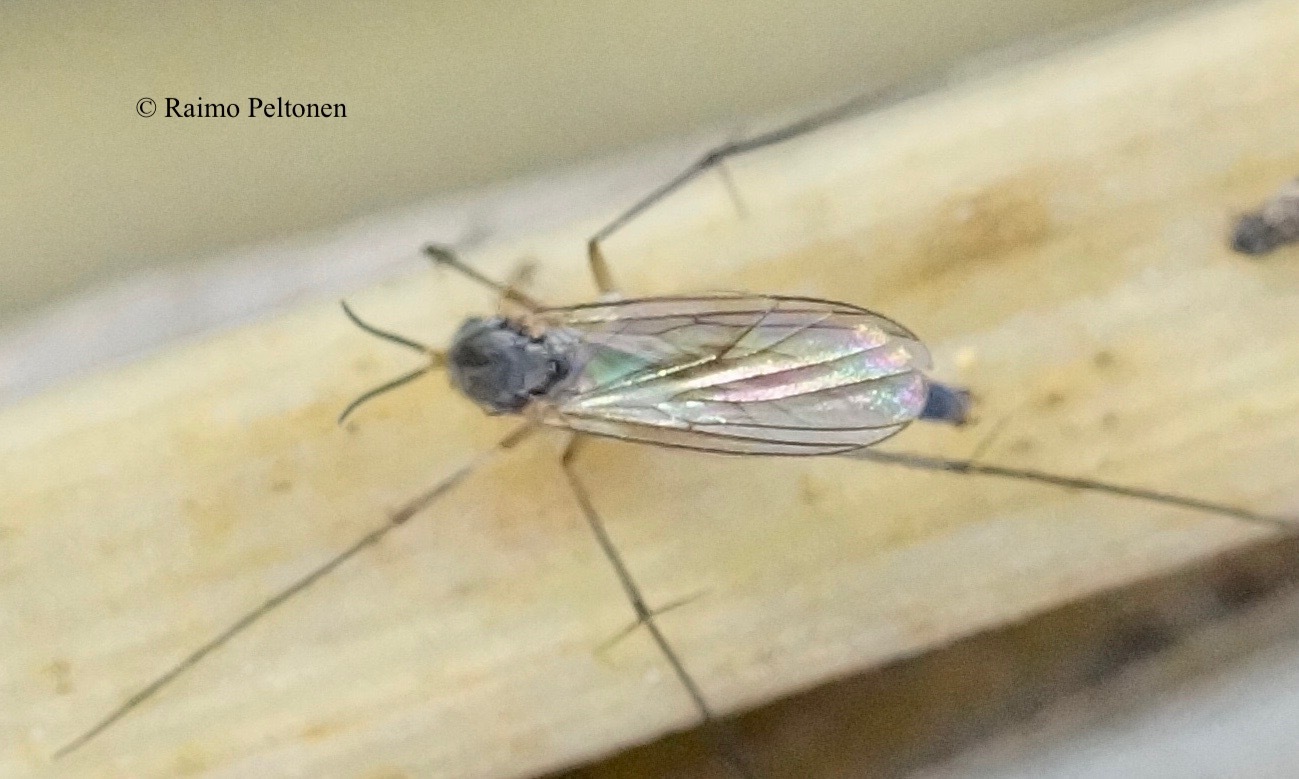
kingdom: Animalia
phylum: Arthropoda
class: Insecta
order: Diptera
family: Mycetophilidae
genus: Exechia
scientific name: Exechia fusca
